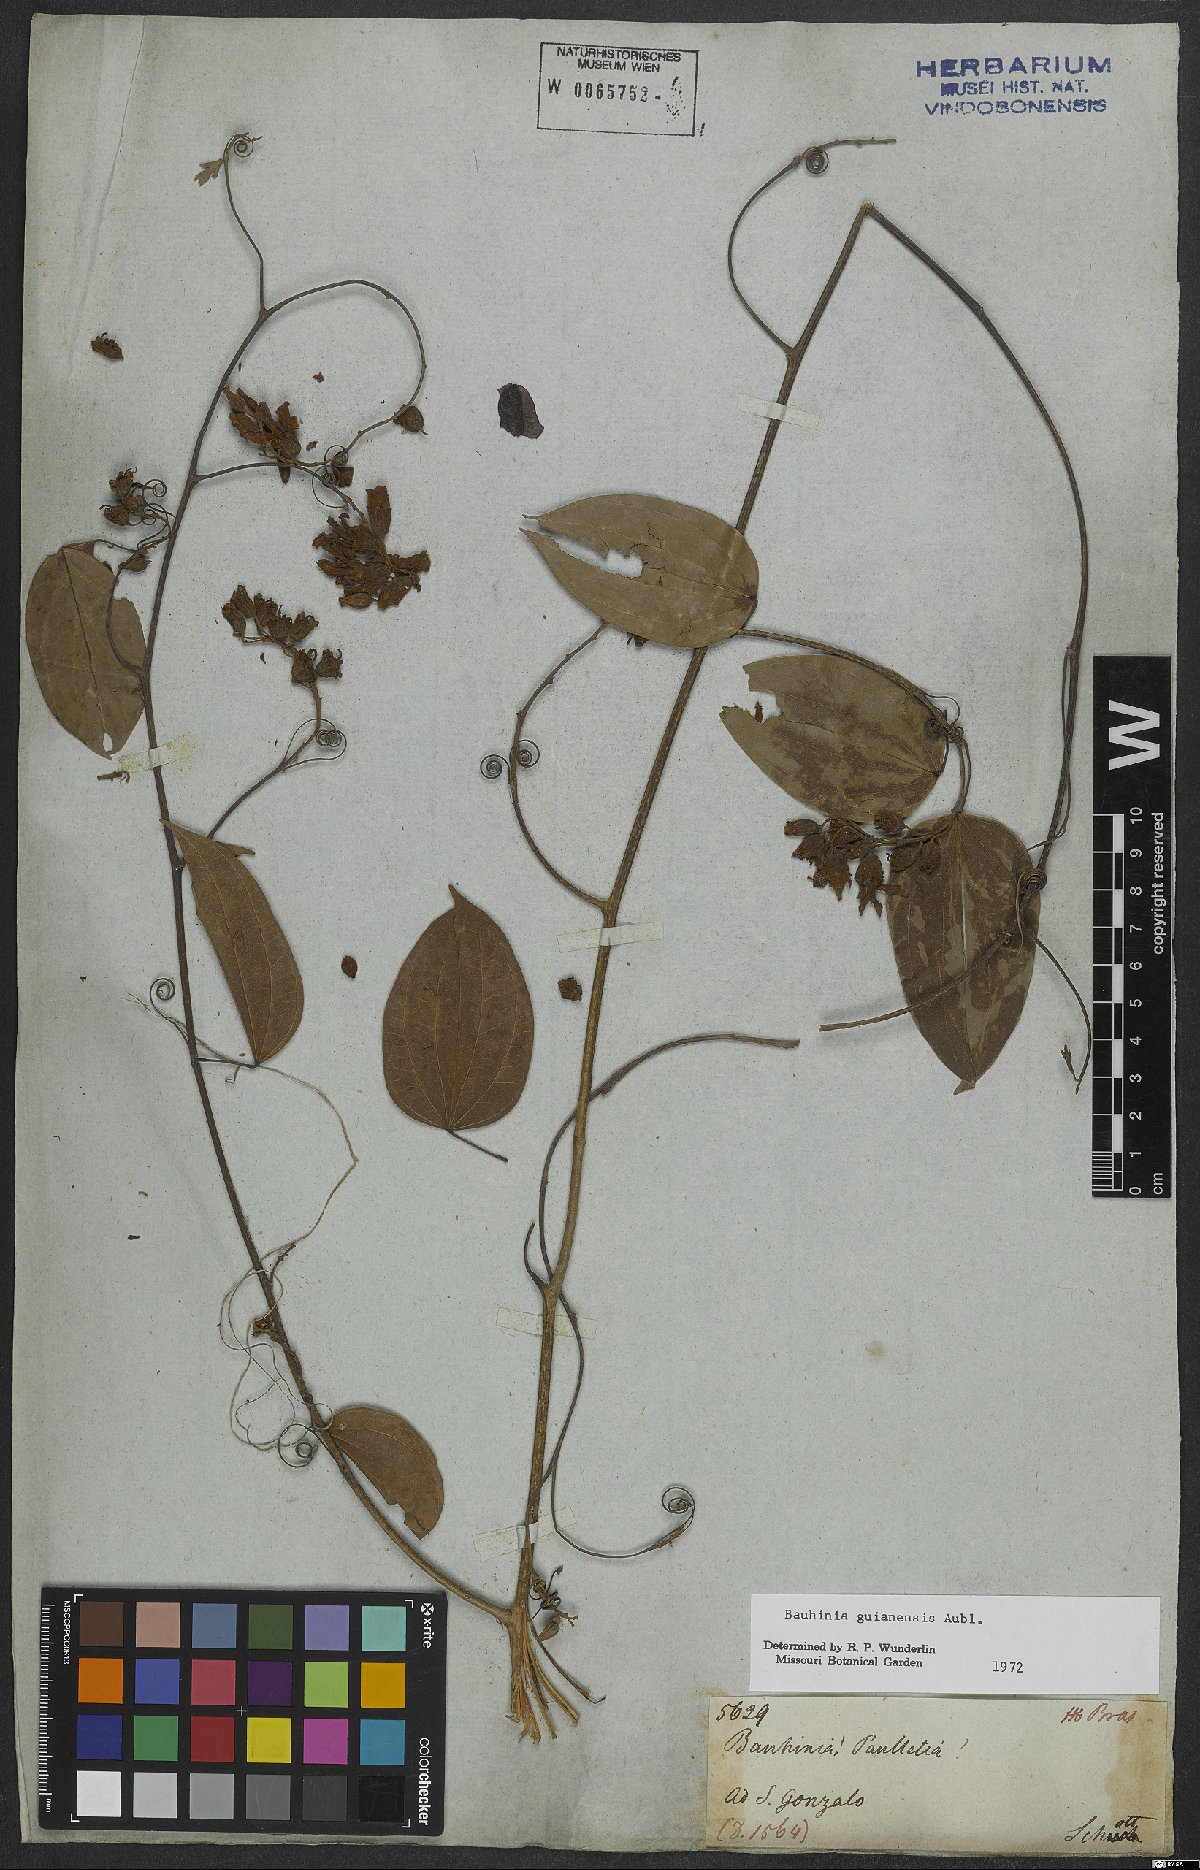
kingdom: Plantae
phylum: Tracheophyta
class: Magnoliopsida
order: Fabales
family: Fabaceae
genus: Schnella
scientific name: Schnella guianensis
